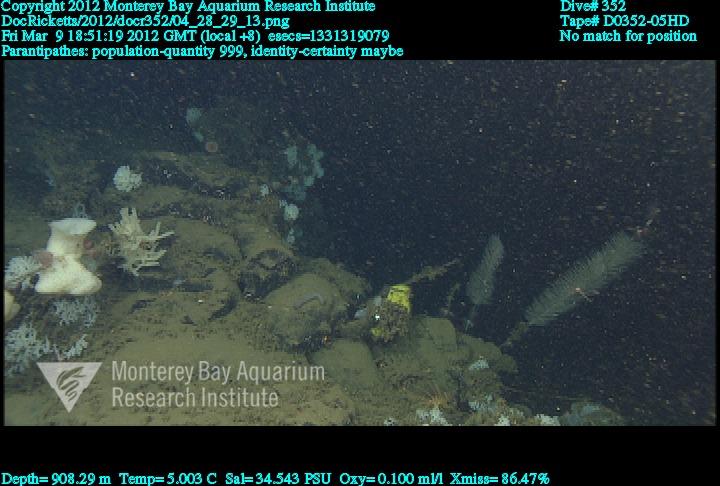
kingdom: Animalia
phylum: Cnidaria
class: Anthozoa
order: Antipatharia
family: Schizopathidae
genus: Parantipathes
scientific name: Parantipathes
